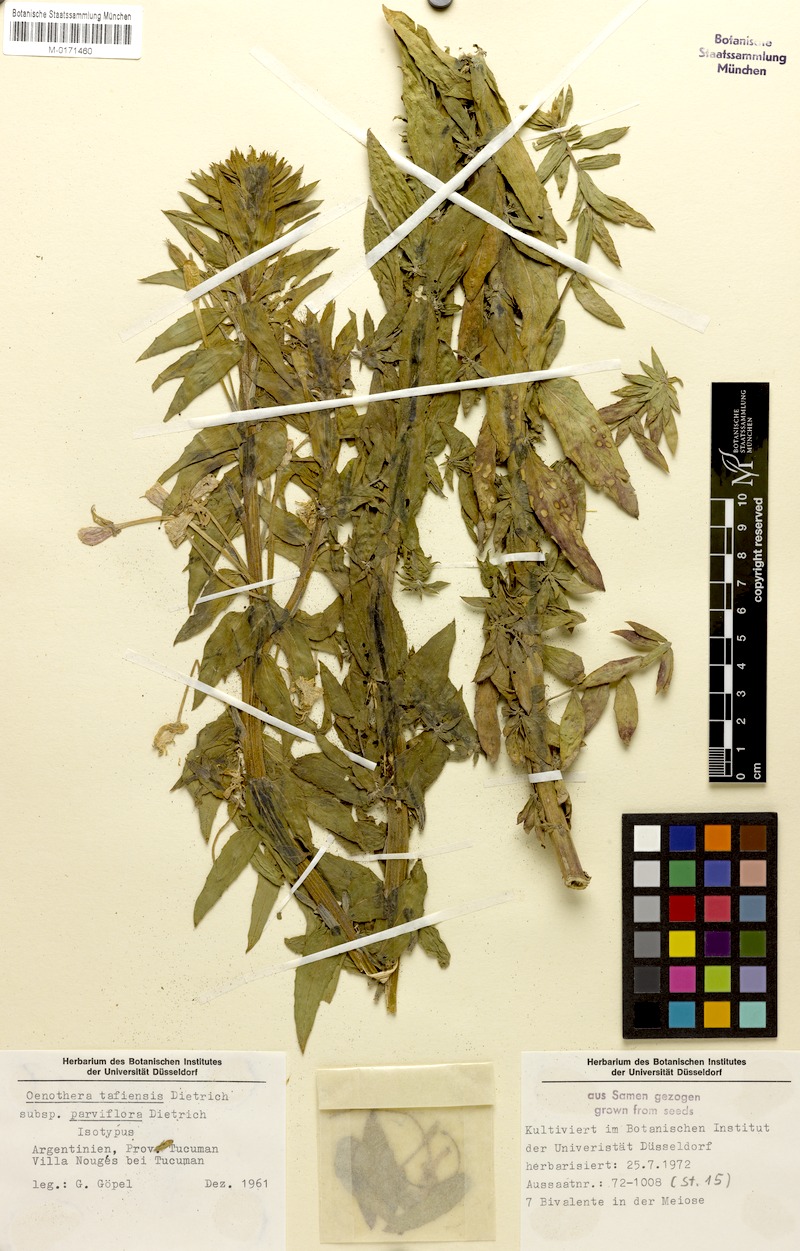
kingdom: Plantae
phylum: Tracheophyta
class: Magnoliopsida
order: Myrtales
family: Onagraceae
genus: Oenothera
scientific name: Oenothera tafiensis
